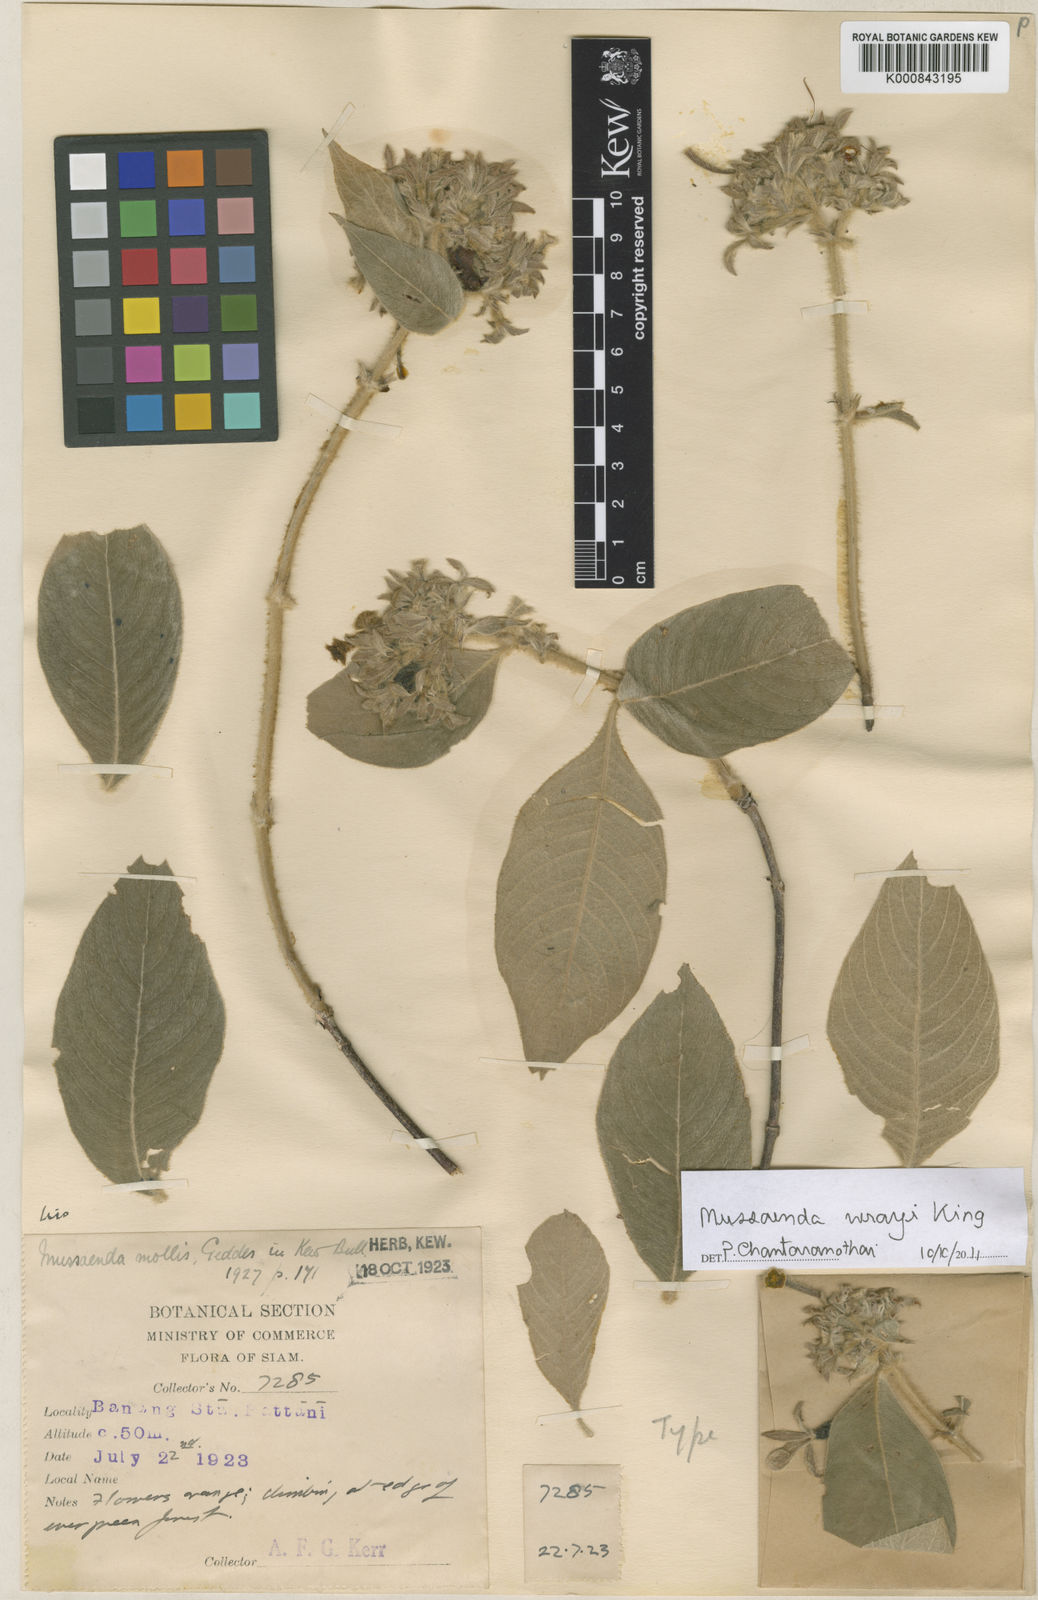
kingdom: Plantae
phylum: Tracheophyta
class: Magnoliopsida
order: Gentianales
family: Rubiaceae
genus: Mussaenda
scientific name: Mussaenda wrayi
